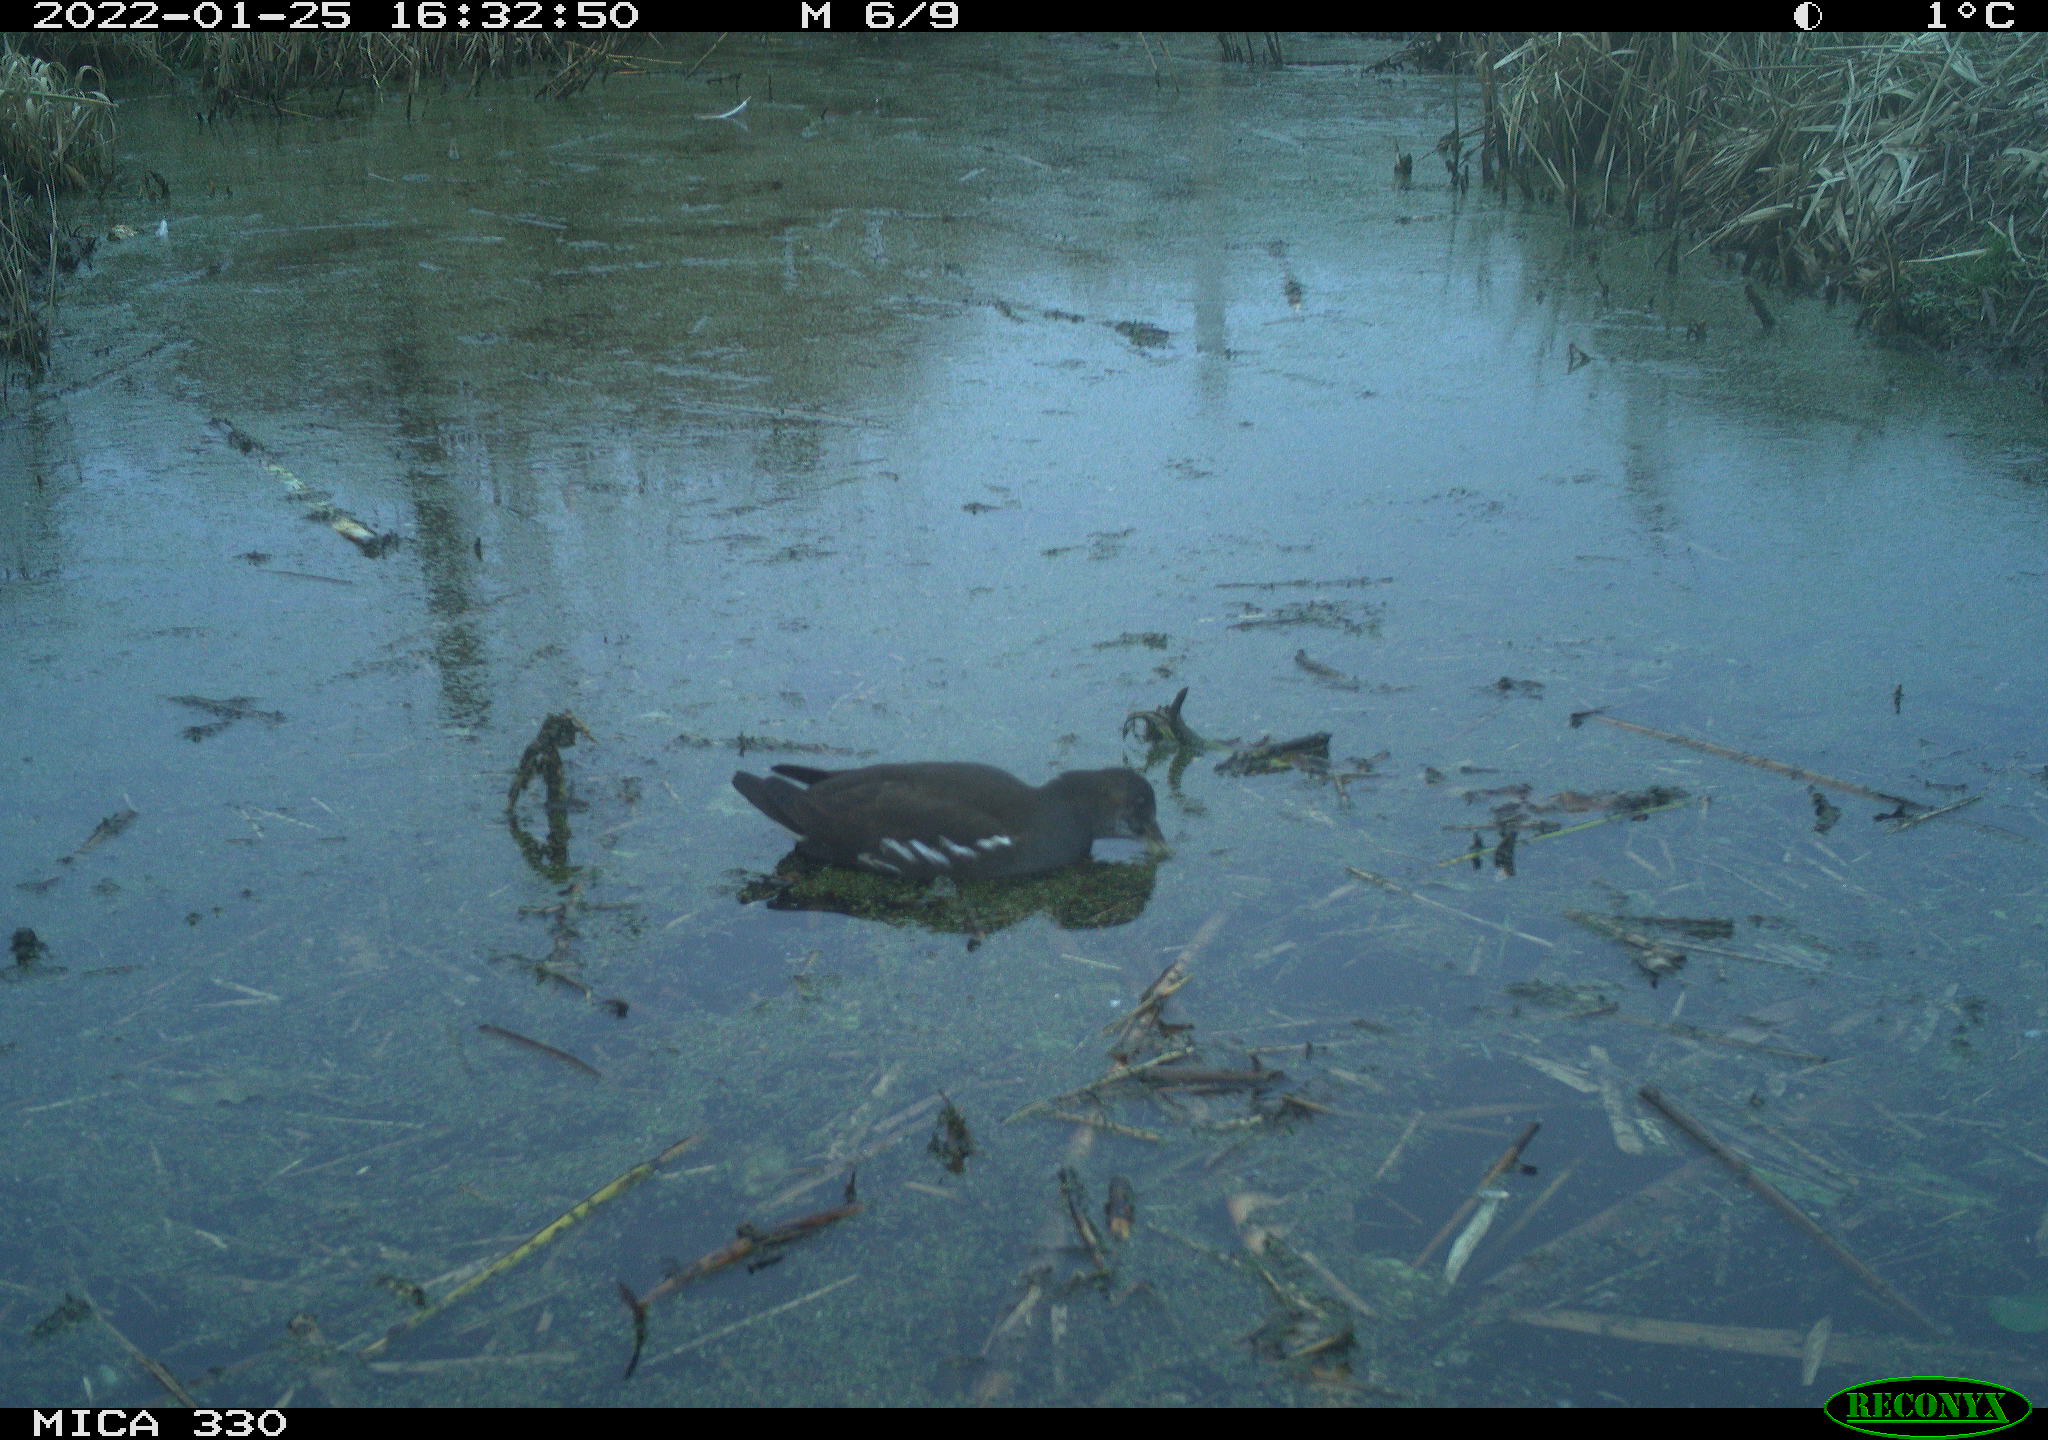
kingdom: Animalia
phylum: Chordata
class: Aves
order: Gruiformes
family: Rallidae
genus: Gallinula
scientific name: Gallinula chloropus
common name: Common moorhen
